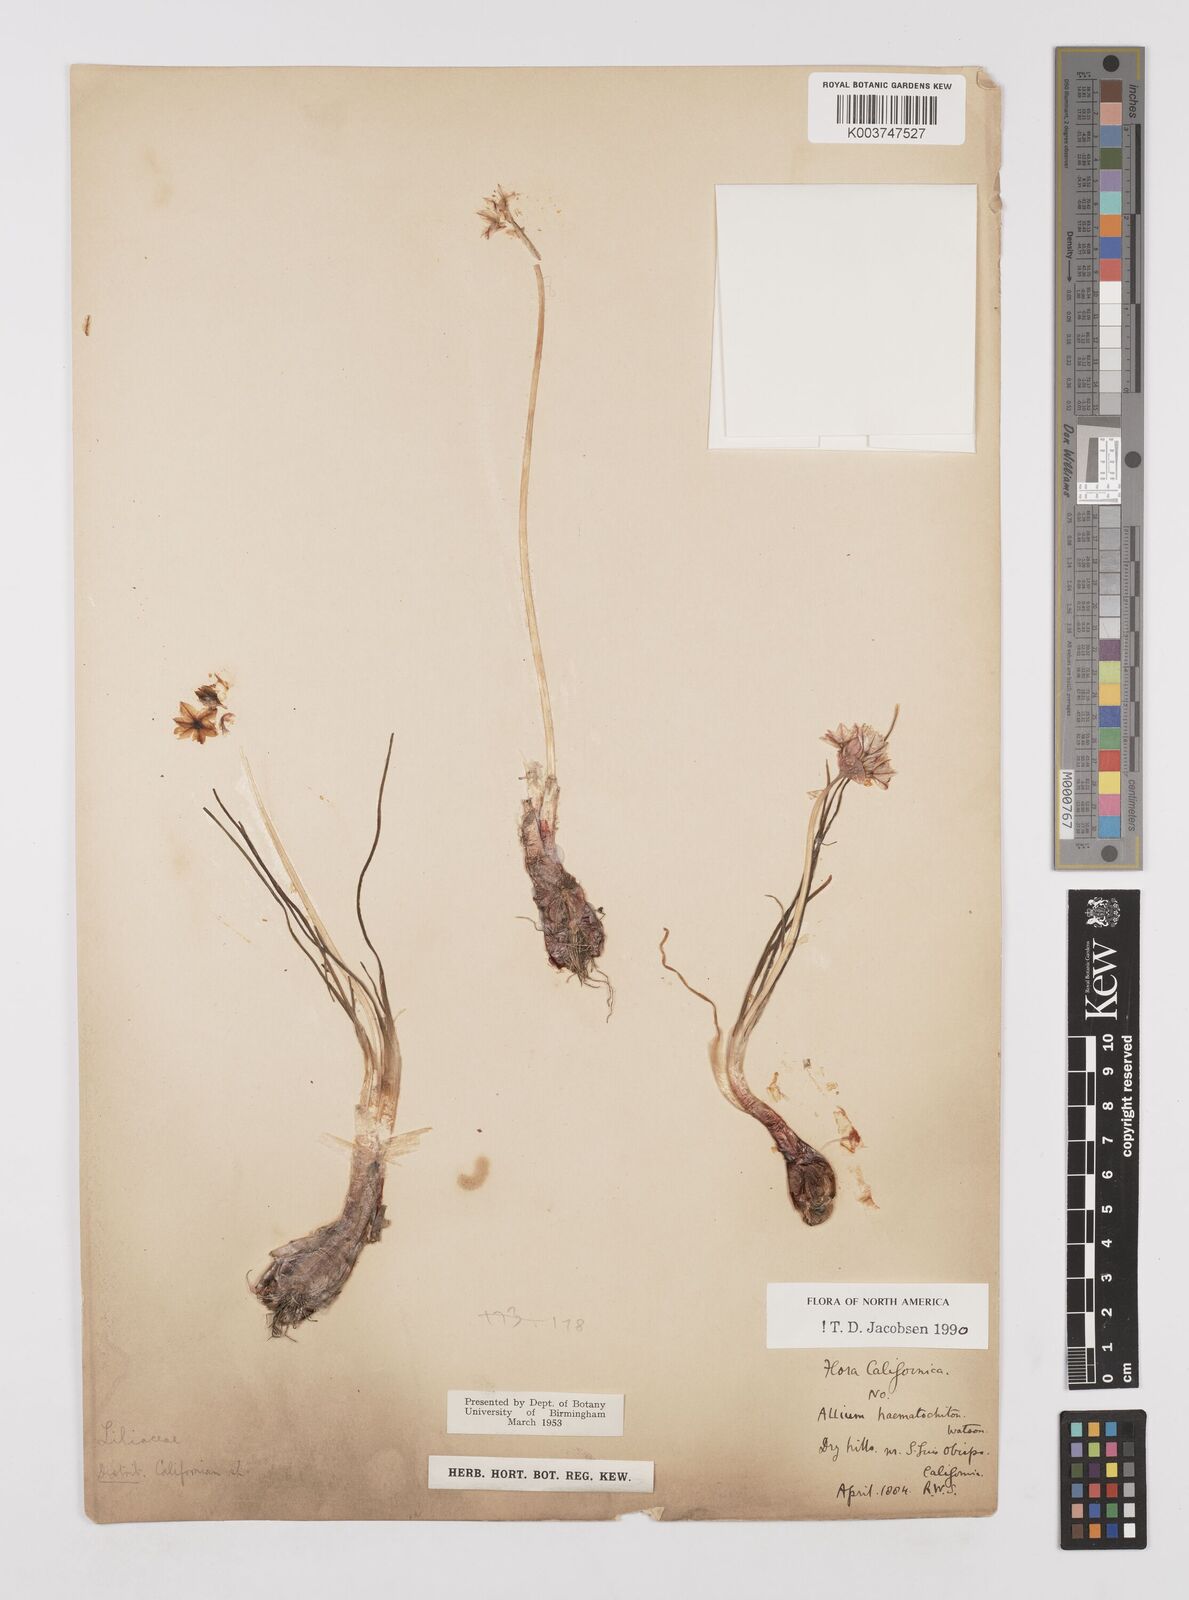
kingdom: Plantae
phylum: Tracheophyta
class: Liliopsida
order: Asparagales
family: Amaryllidaceae
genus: Allium
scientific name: Allium haematochiton
